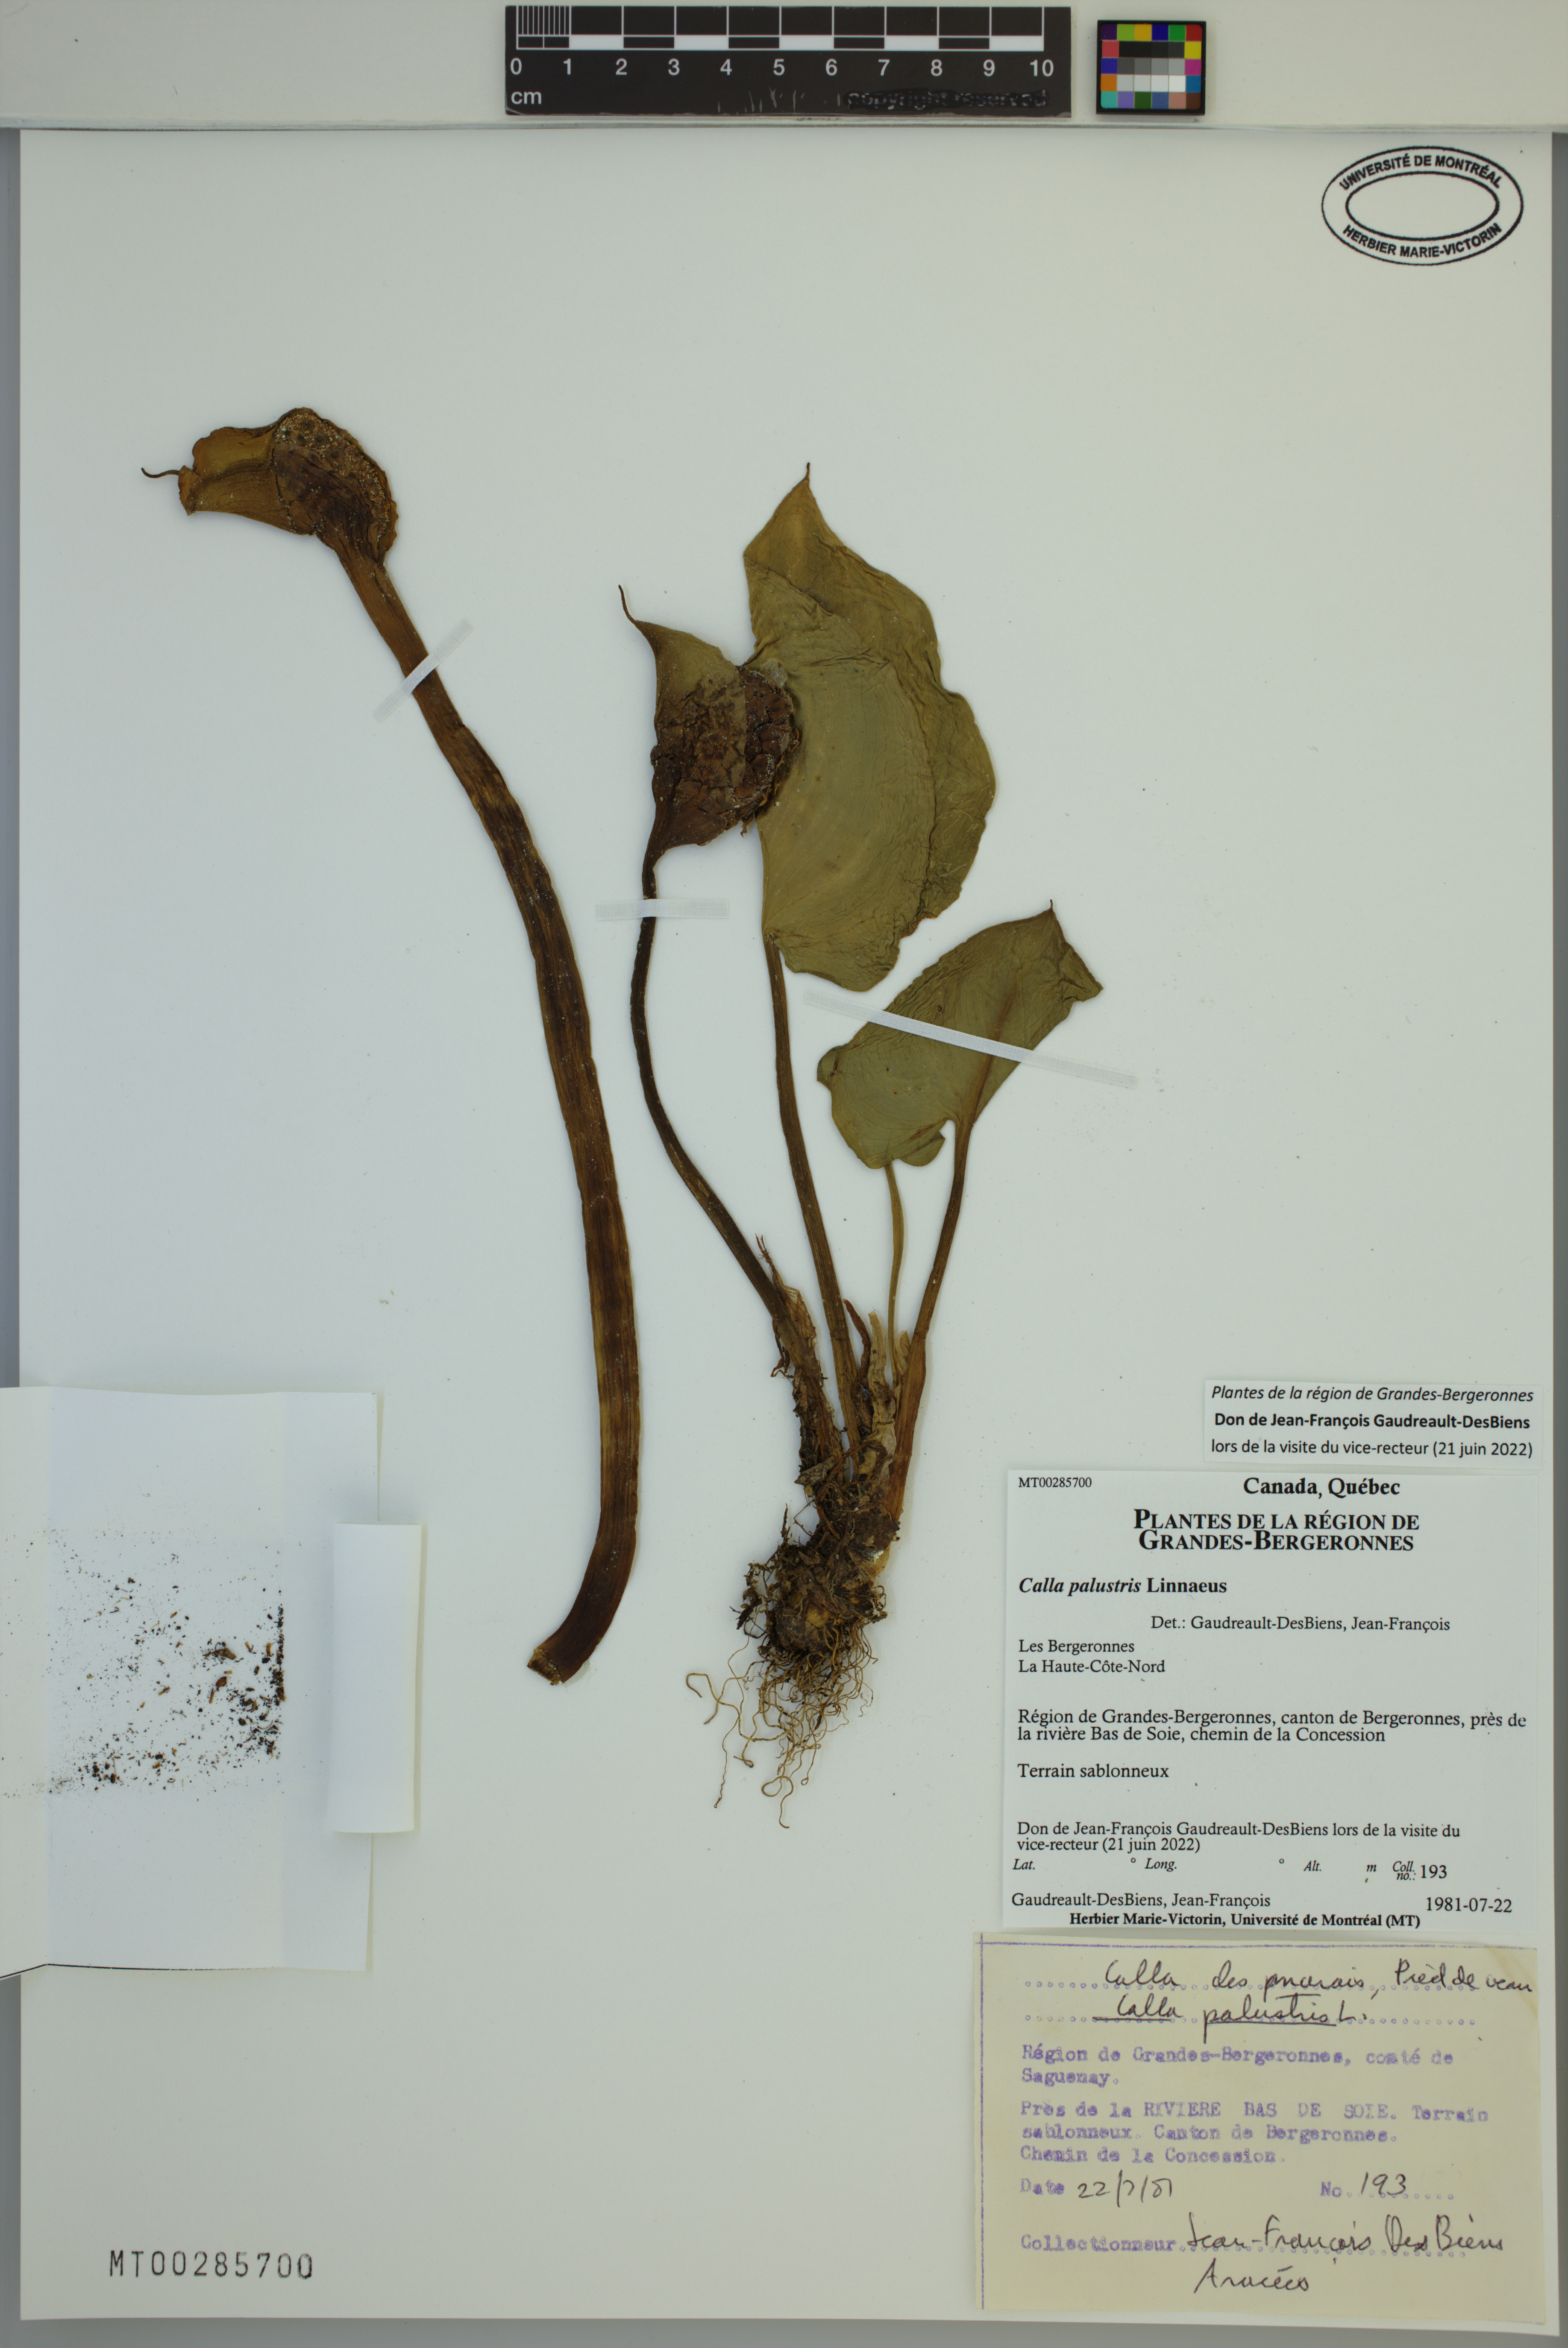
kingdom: Plantae
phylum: Tracheophyta
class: Liliopsida
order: Alismatales
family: Araceae
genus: Calla
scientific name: Calla palustris
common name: Bog arum
